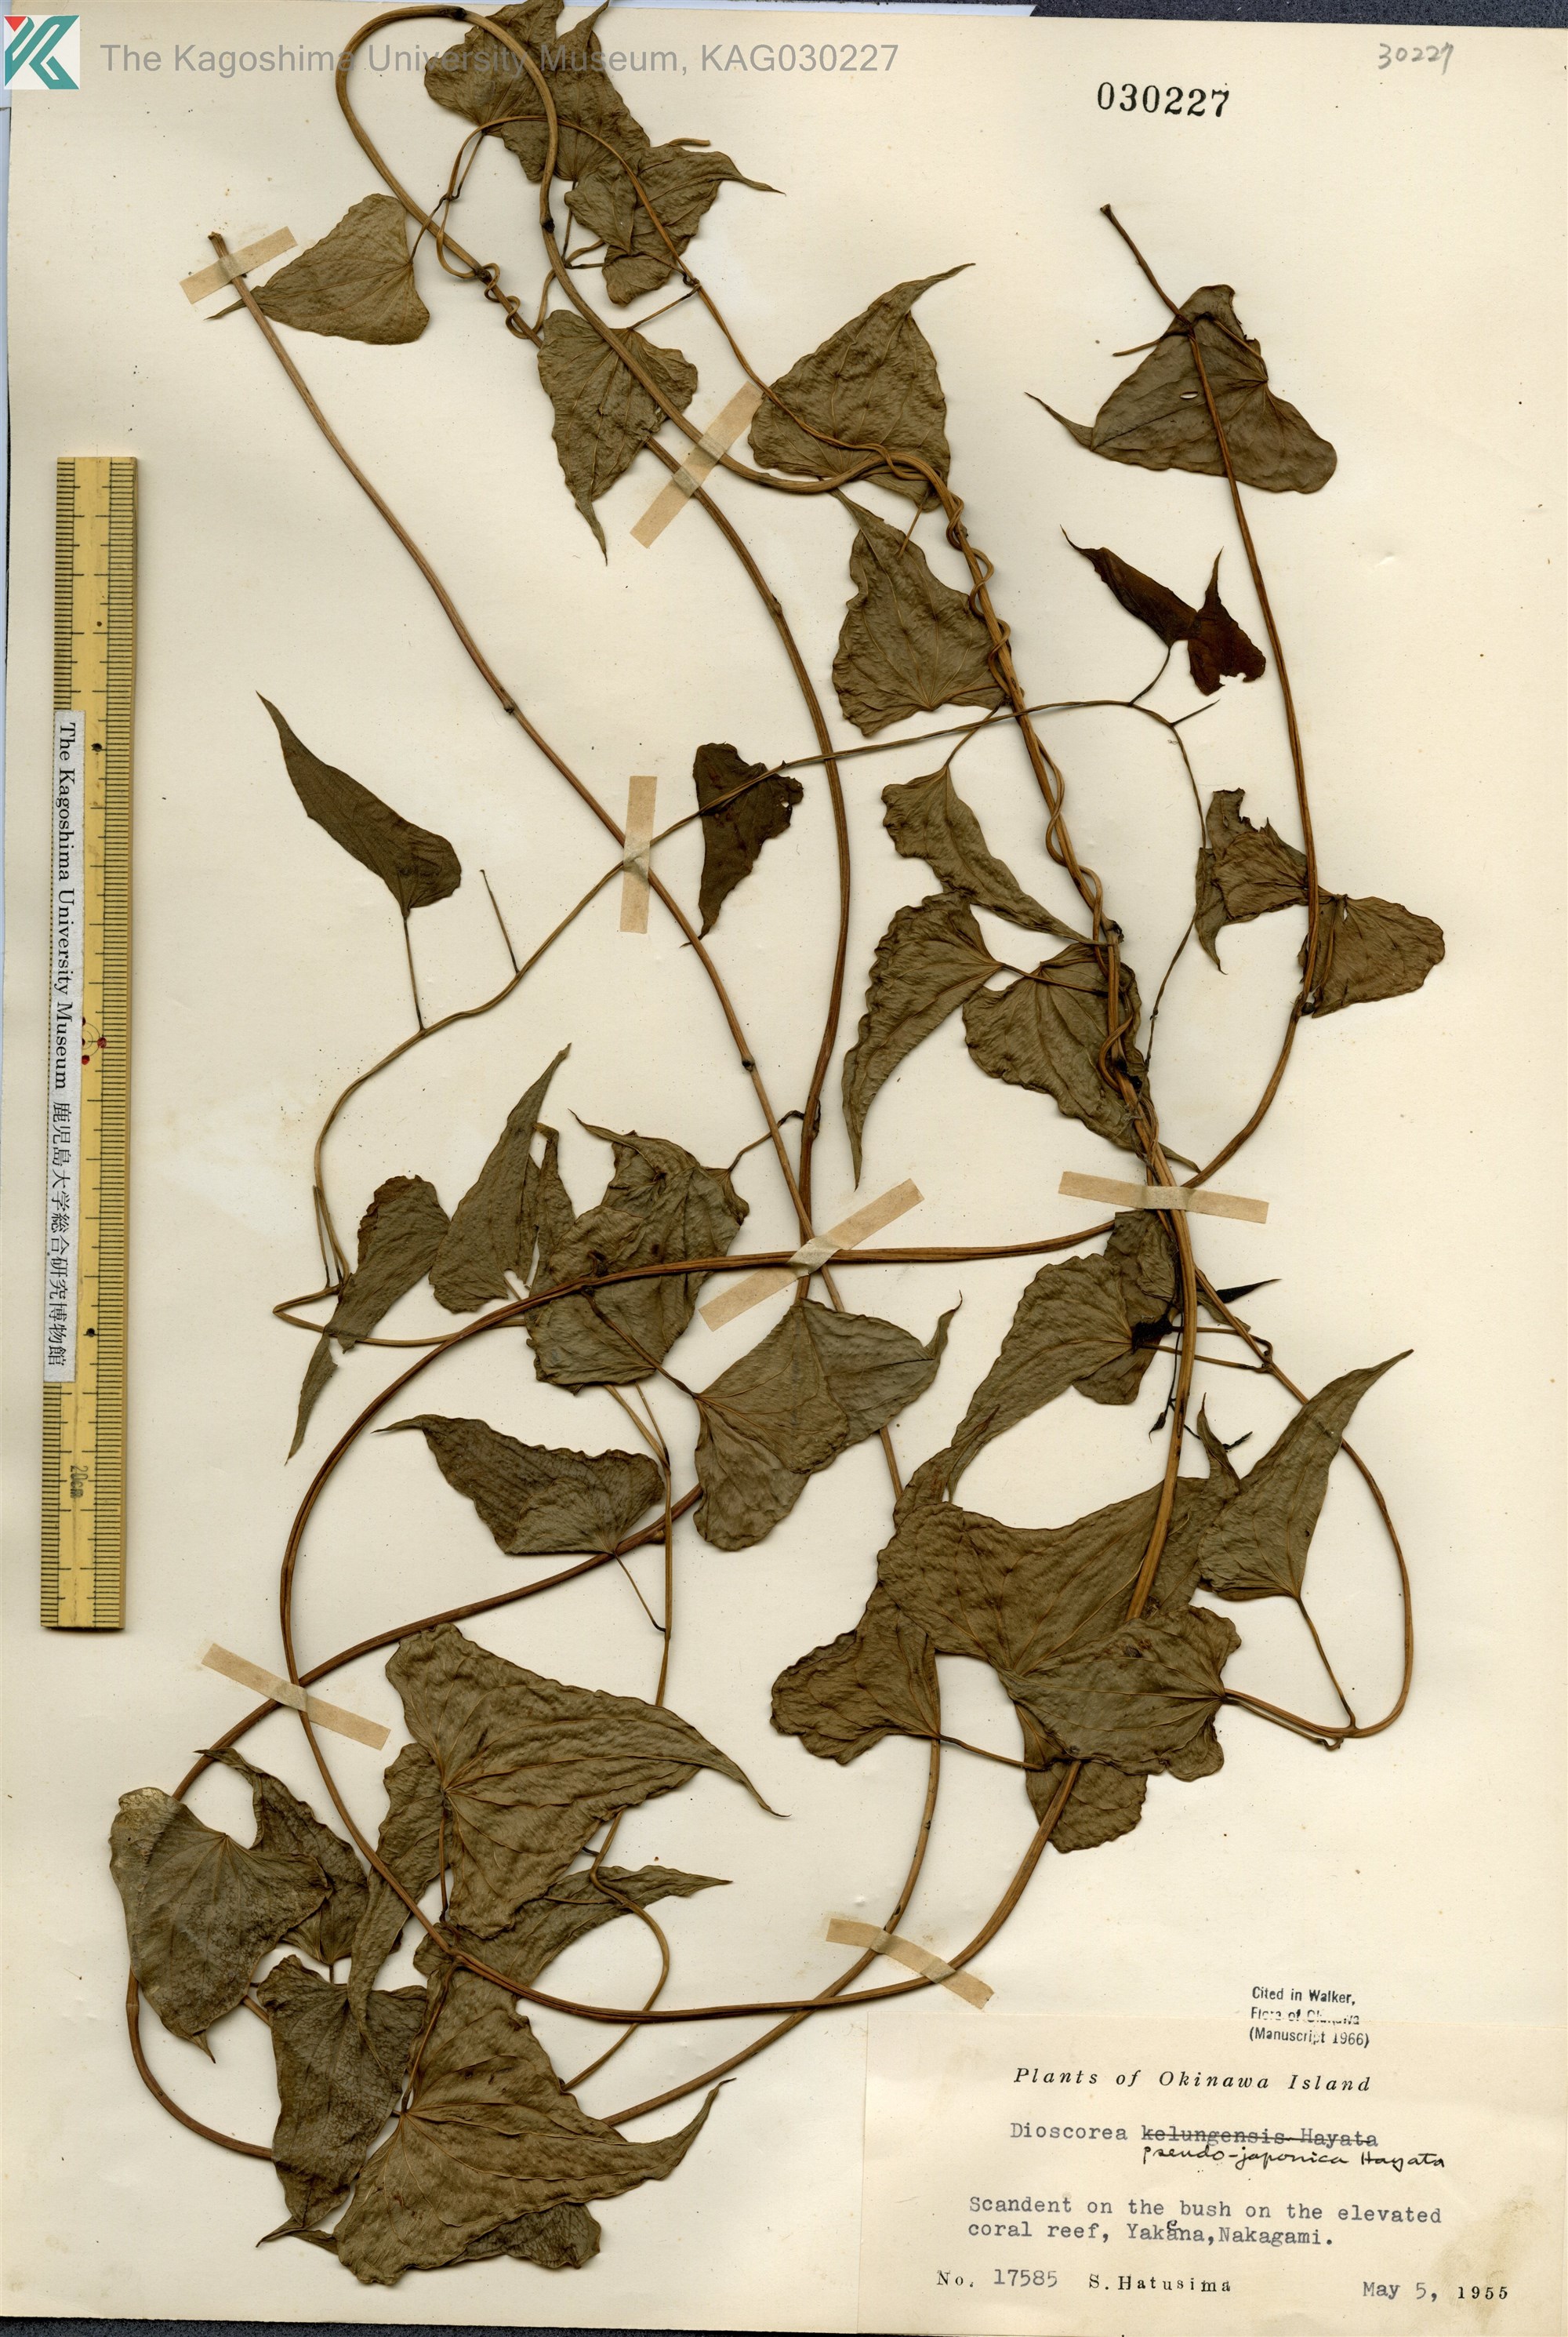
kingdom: Plantae
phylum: Tracheophyta
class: Liliopsida
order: Dioscoreales
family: Dioscoreaceae
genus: Dioscorea
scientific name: Dioscorea japonica
